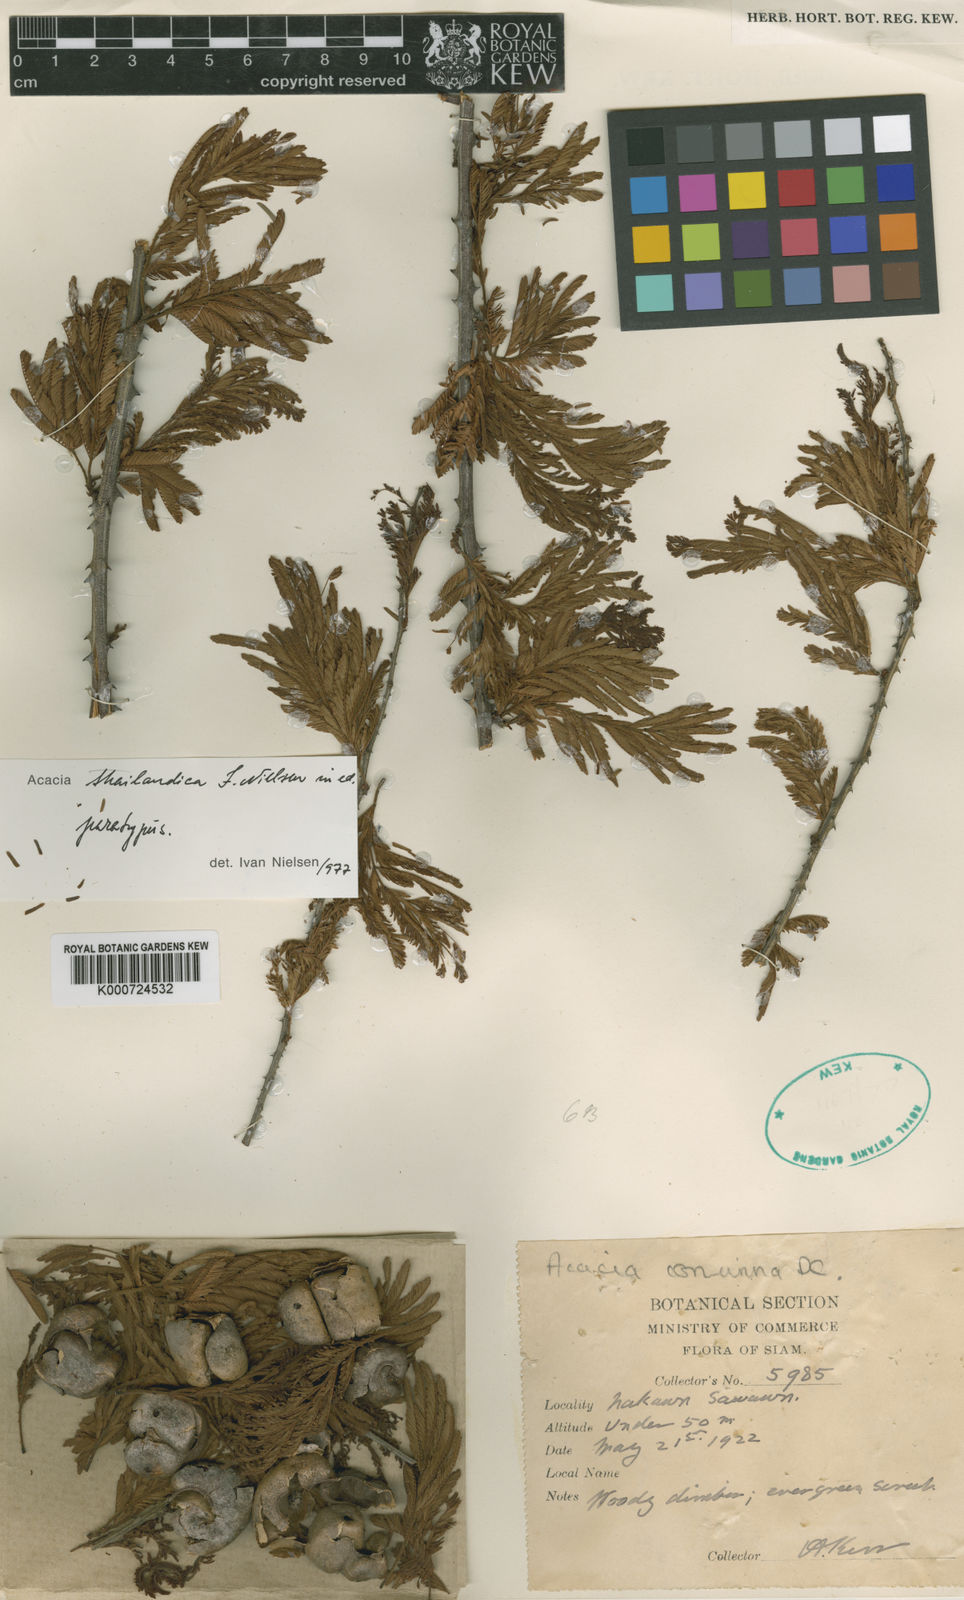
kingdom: Plantae
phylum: Tracheophyta
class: Magnoliopsida
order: Fabales
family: Fabaceae
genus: Senegalia
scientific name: Senegalia thailandica
